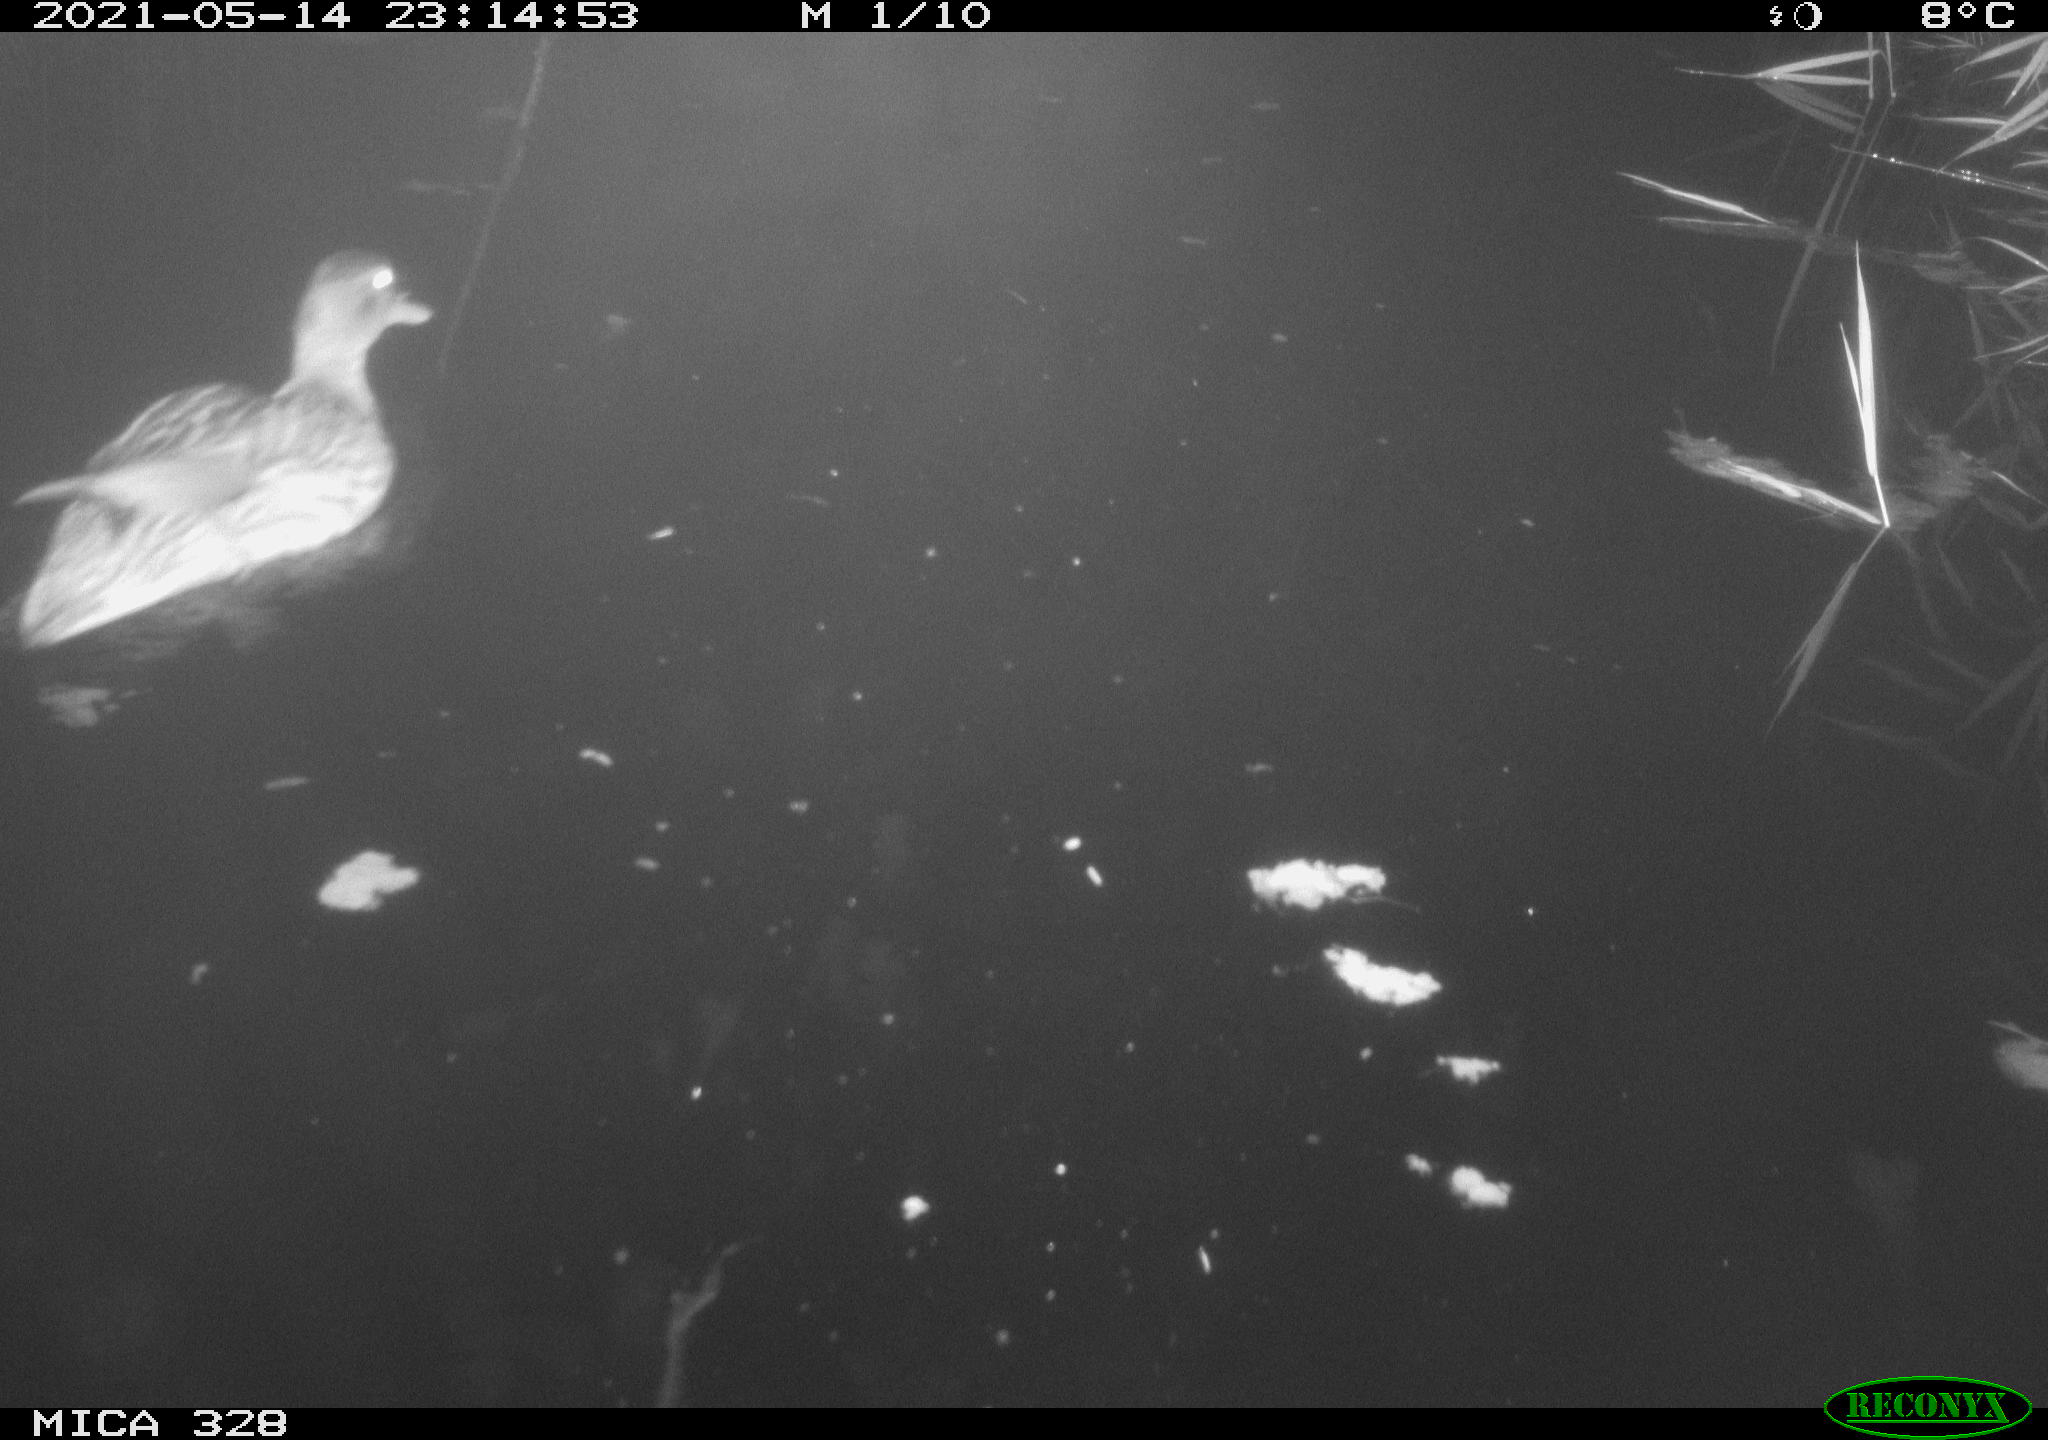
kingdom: Animalia
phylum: Chordata
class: Aves
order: Anseriformes
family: Anatidae
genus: Anas
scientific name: Anas platyrhynchos
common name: Mallard
